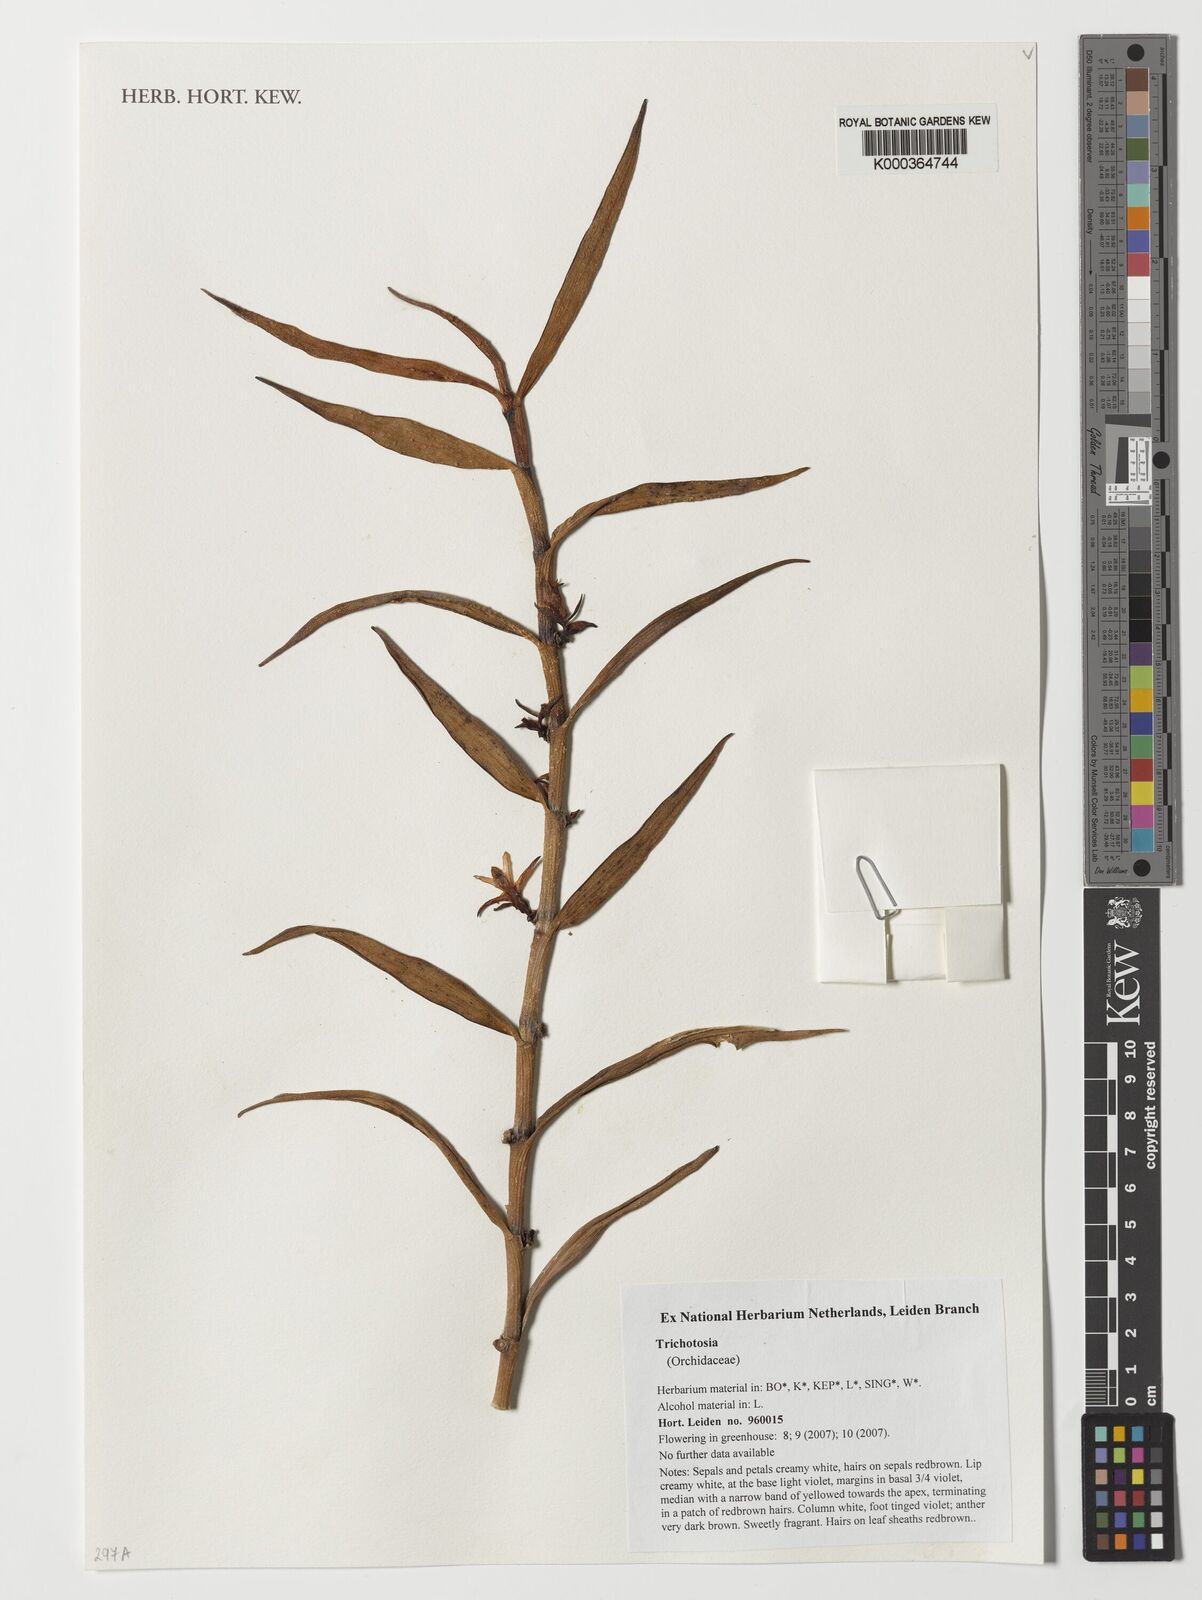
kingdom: Plantae
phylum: Tracheophyta
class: Liliopsida
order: Asparagales
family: Orchidaceae
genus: Trichotosia
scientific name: Trichotosia
